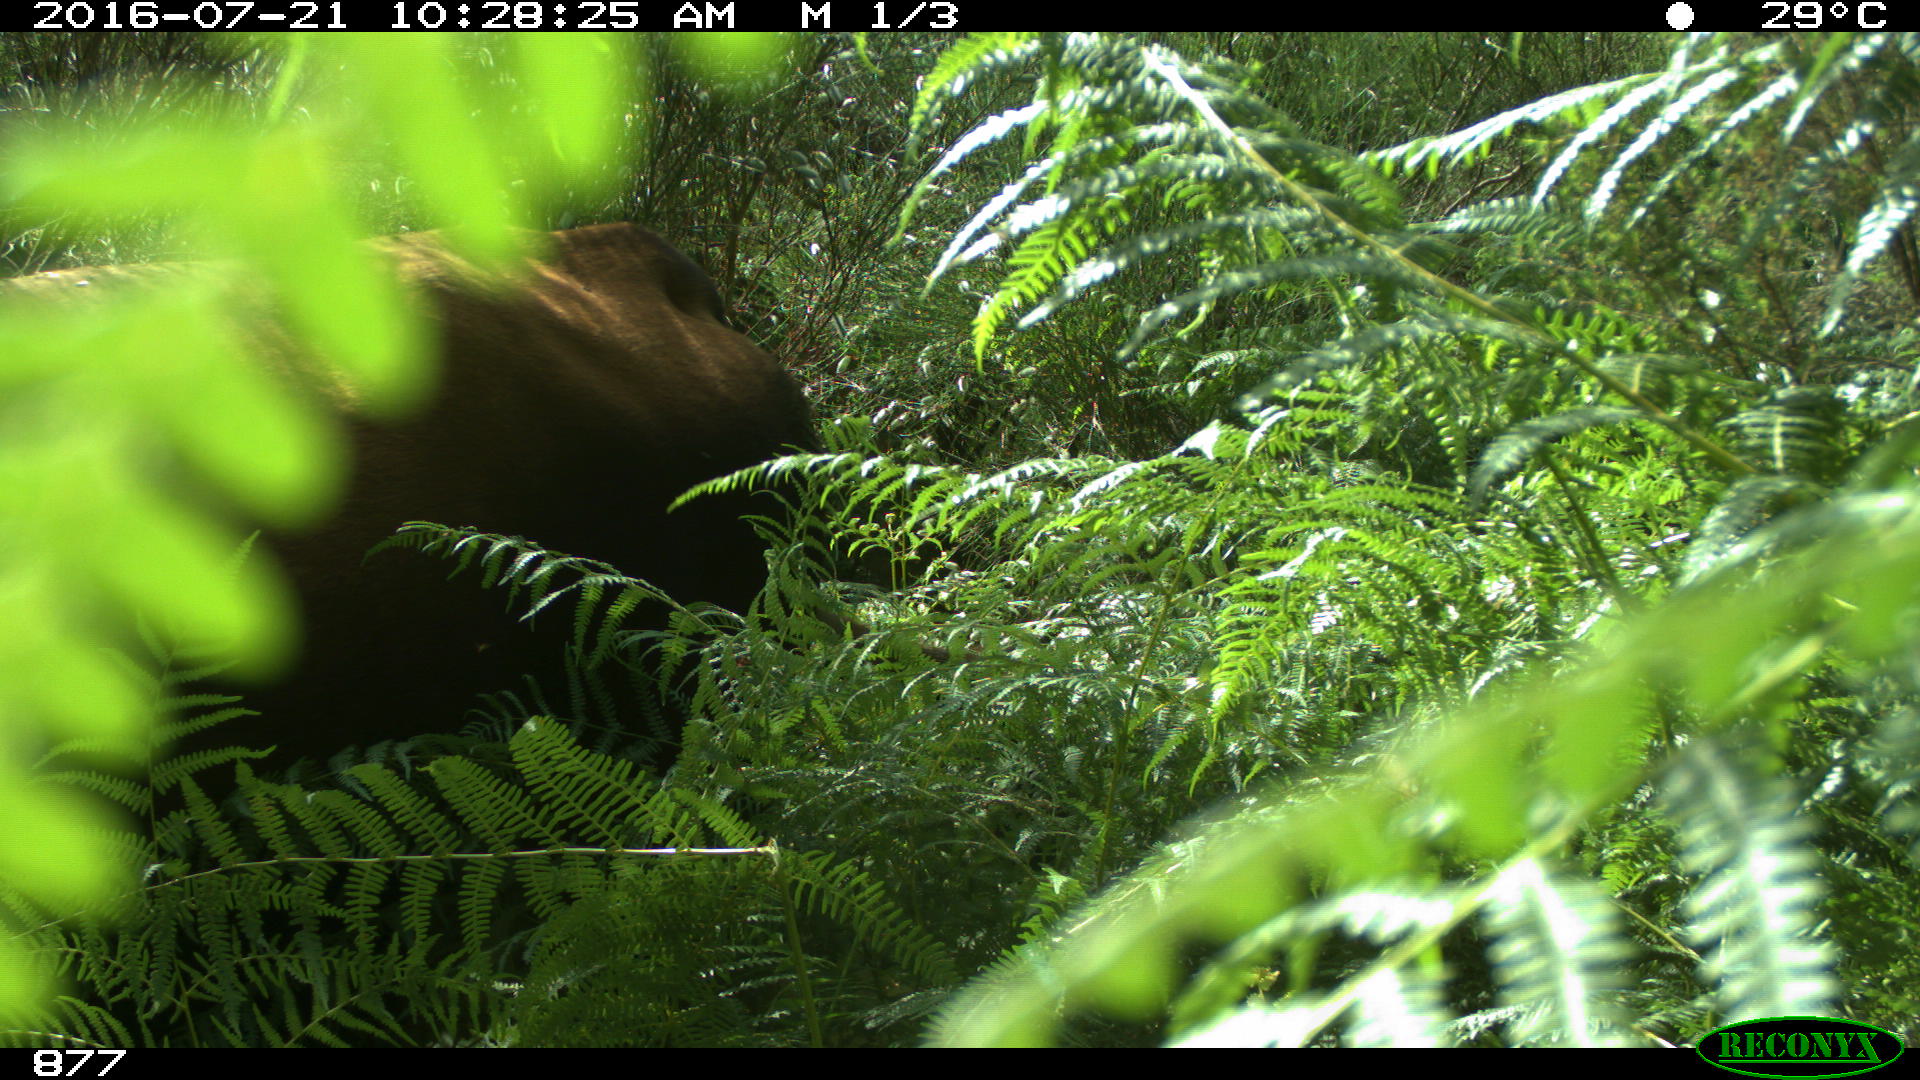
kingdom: Animalia
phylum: Chordata
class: Mammalia
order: Artiodactyla
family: Bovidae
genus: Bos
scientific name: Bos taurus
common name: Domesticated cattle
